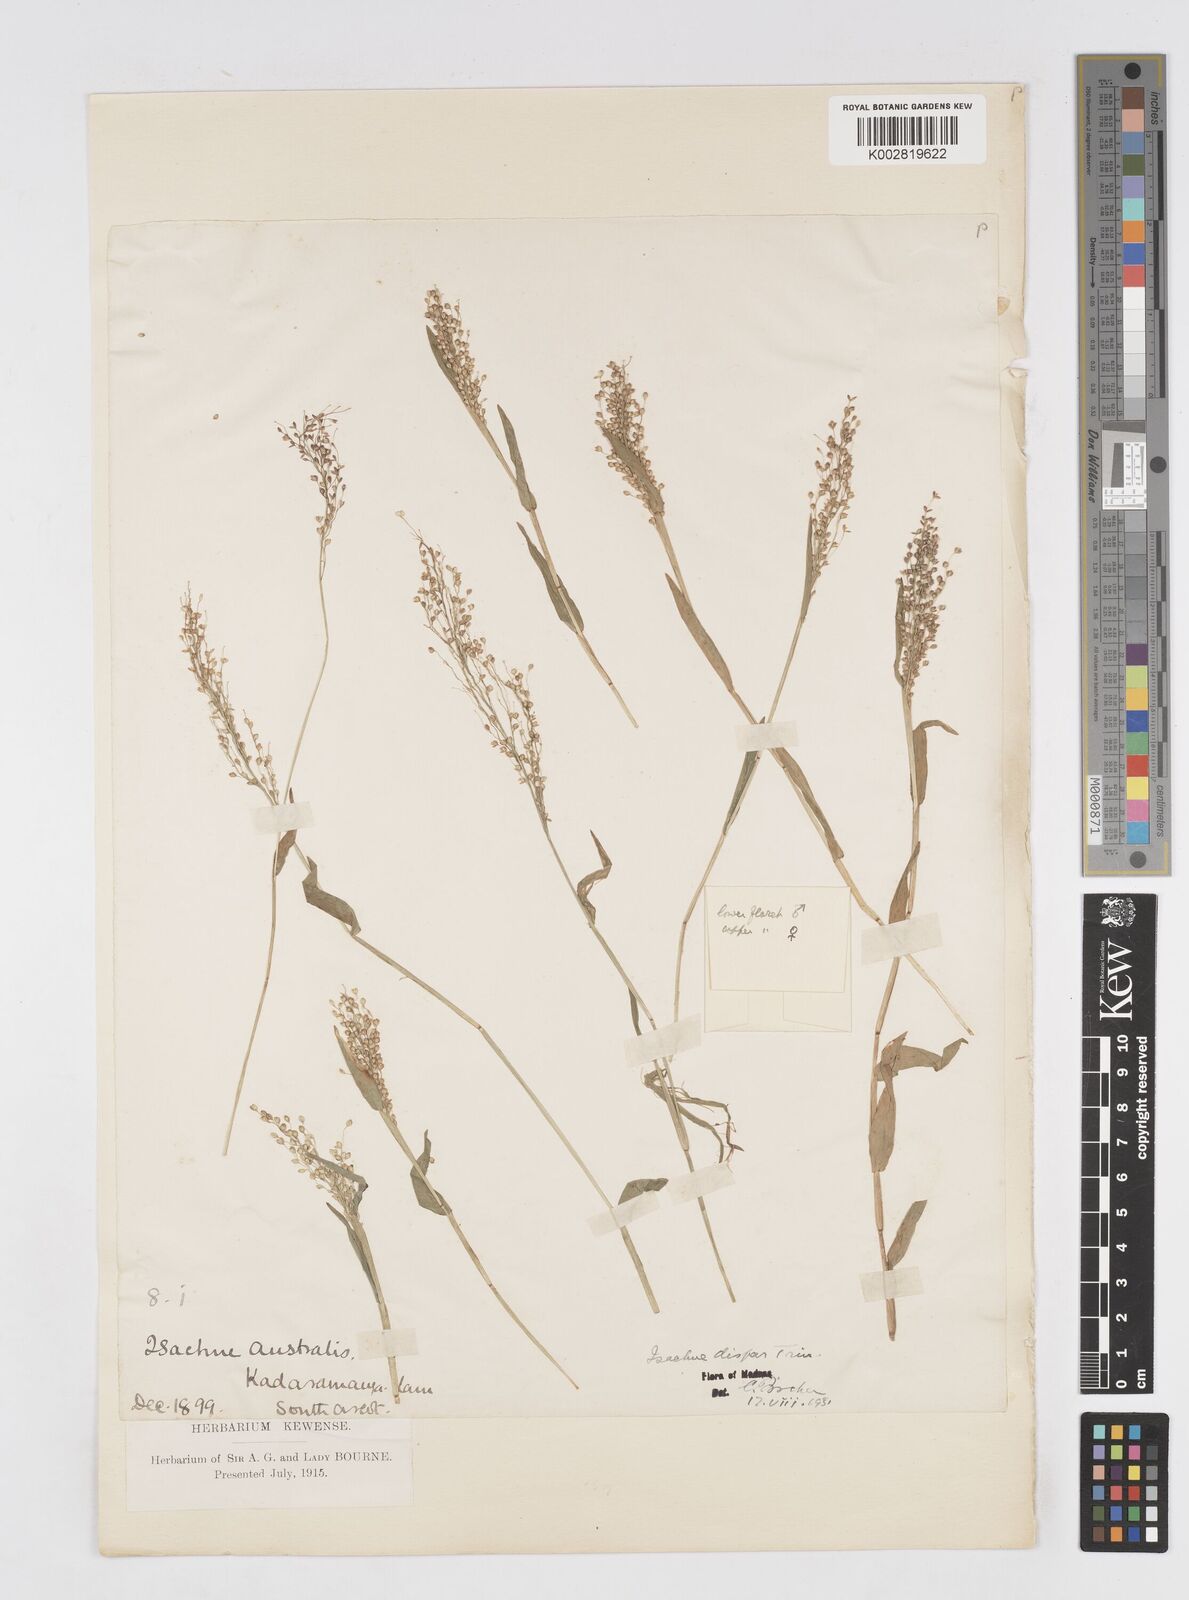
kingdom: Plantae
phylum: Tracheophyta
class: Liliopsida
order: Poales
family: Poaceae
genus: Isachne
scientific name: Isachne globosa
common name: Swamp millet
